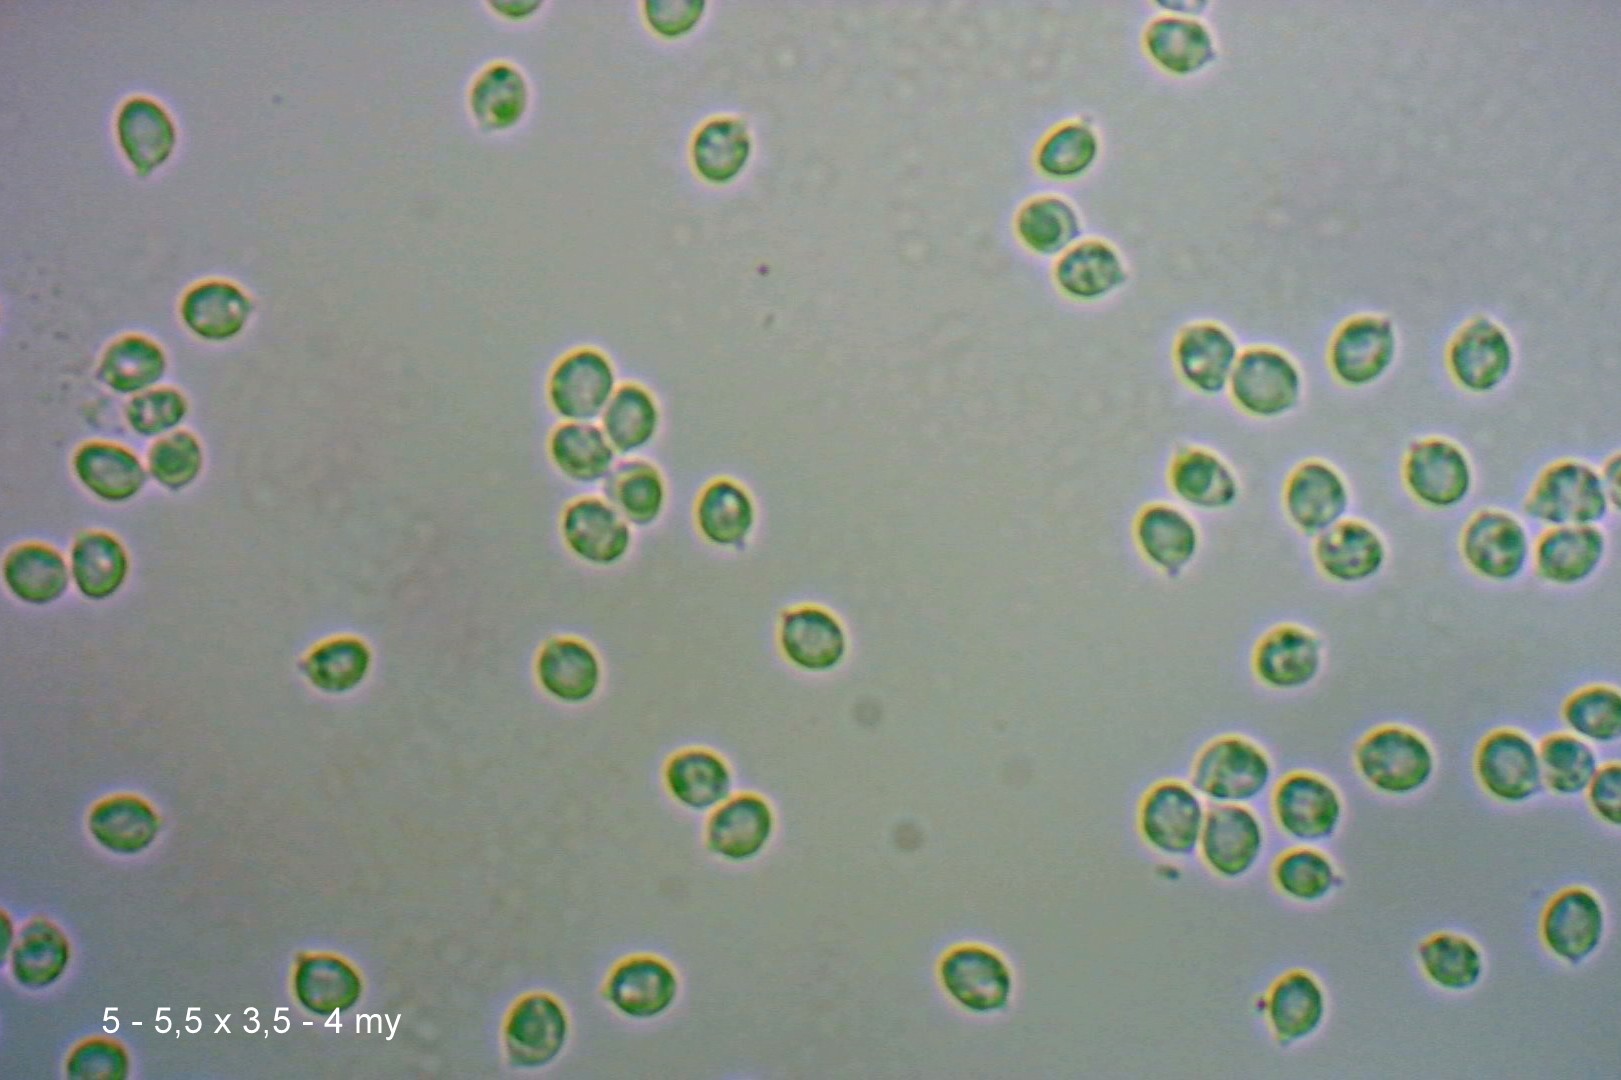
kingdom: Fungi
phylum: Basidiomycota
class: Agaricomycetes
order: Agaricales
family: Clavariaceae
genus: Clavaria
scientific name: Clavaria fragilis
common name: bugtet køllesvamp
